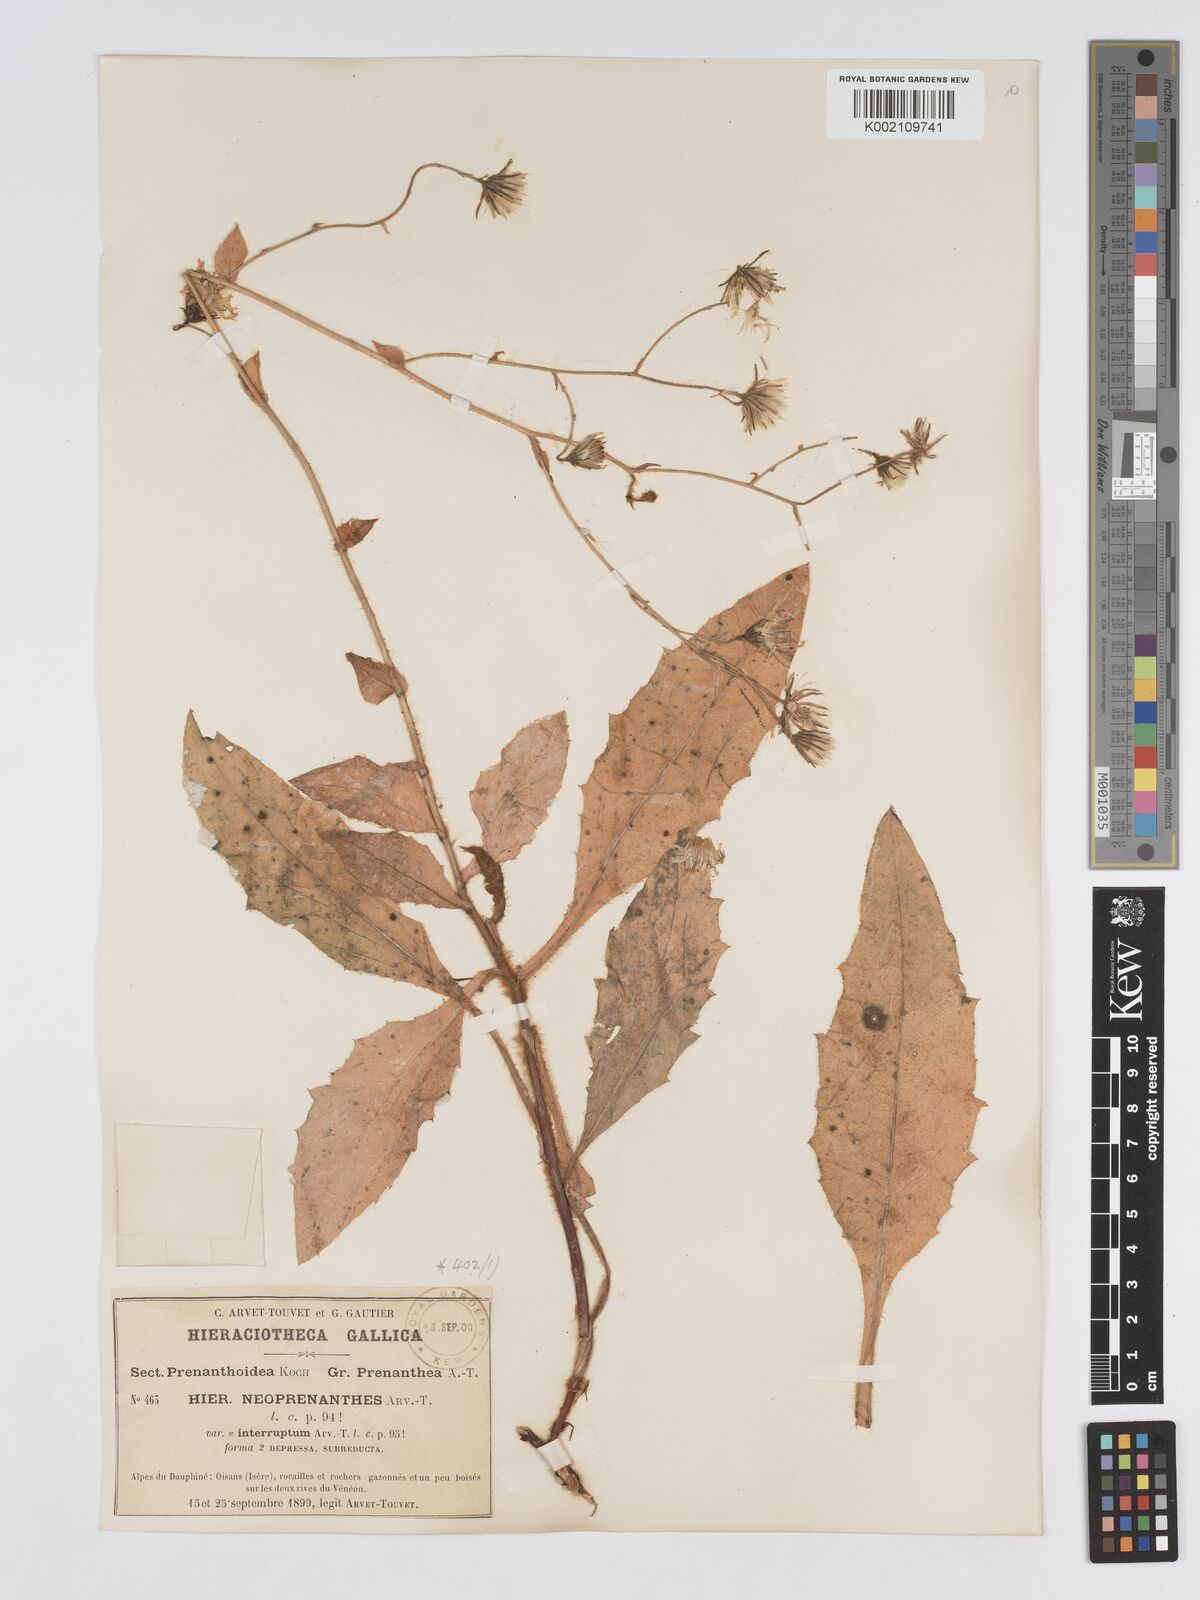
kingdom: Plantae
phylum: Tracheophyta
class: Magnoliopsida
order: Asterales
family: Asteraceae
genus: Hieracium
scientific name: Hieracium symphytaceum
